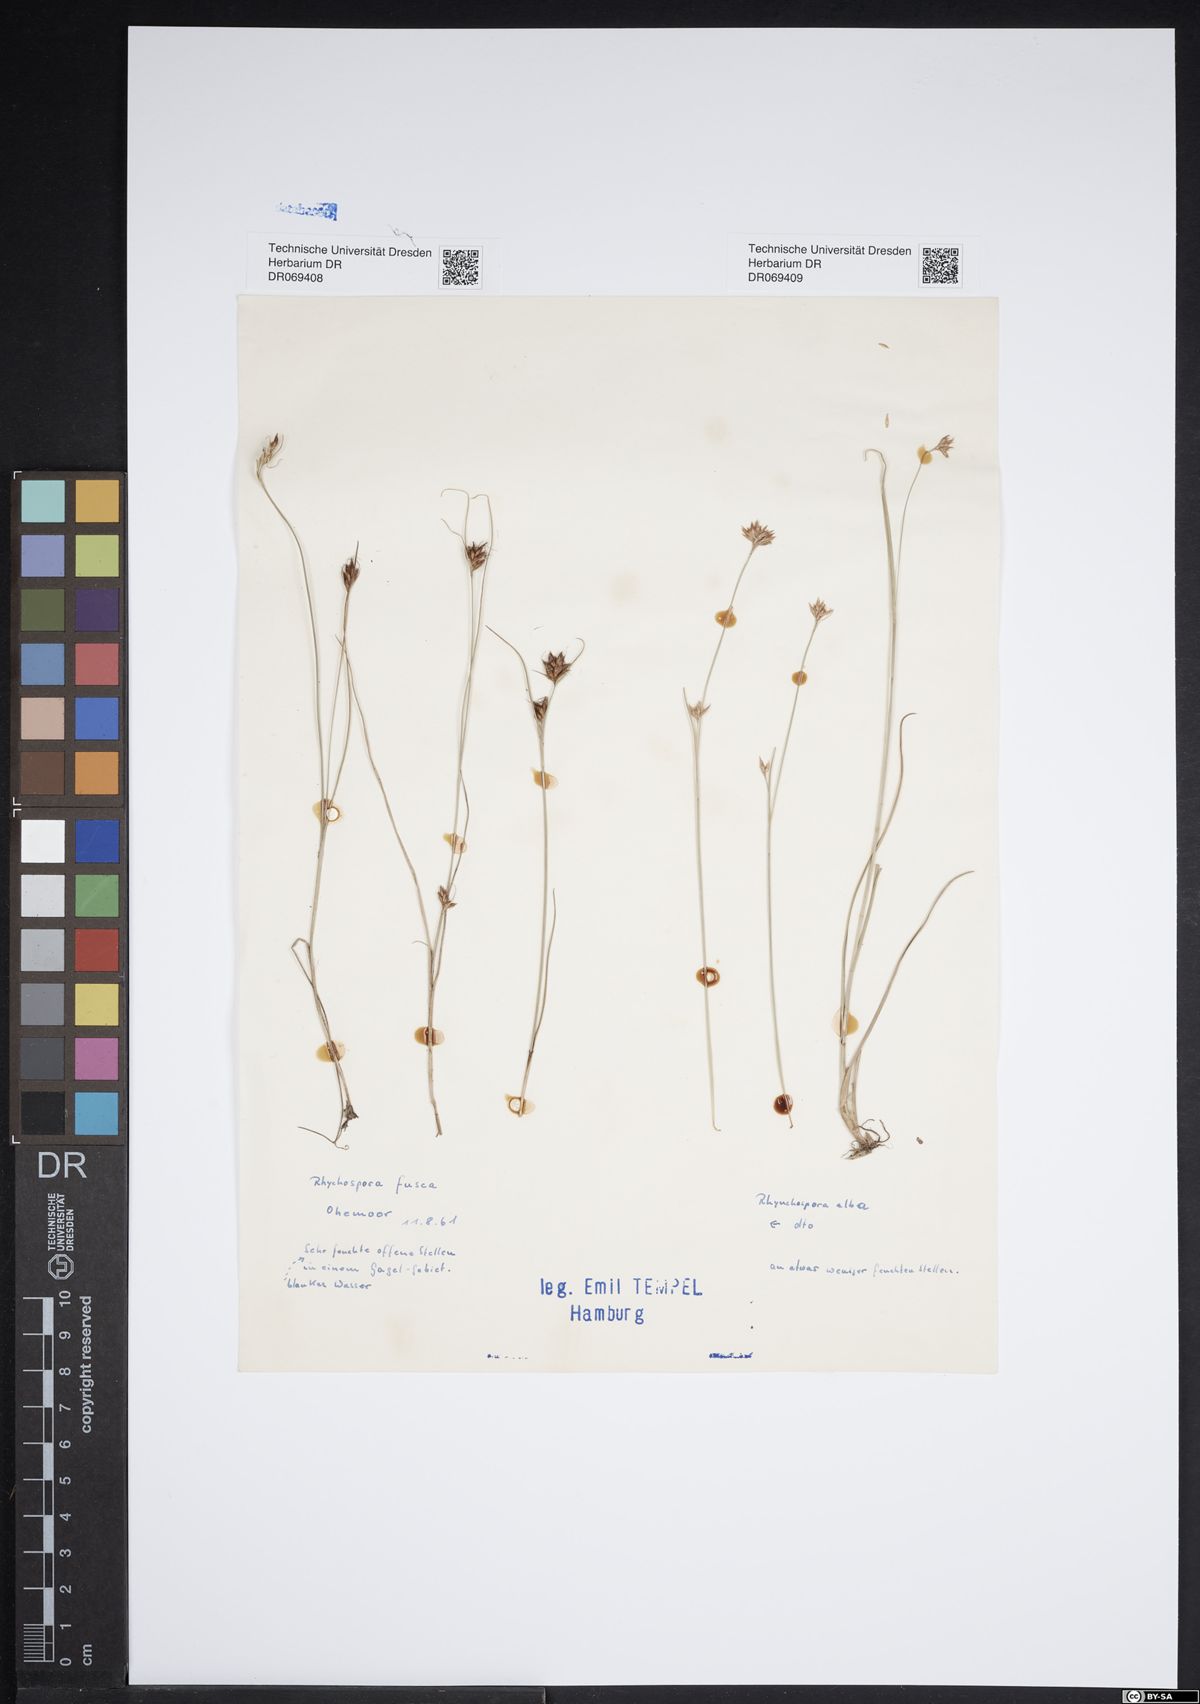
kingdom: Plantae
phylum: Tracheophyta
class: Liliopsida
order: Poales
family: Cyperaceae
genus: Rhynchospora
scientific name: Rhynchospora alba
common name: White beak-sedge
